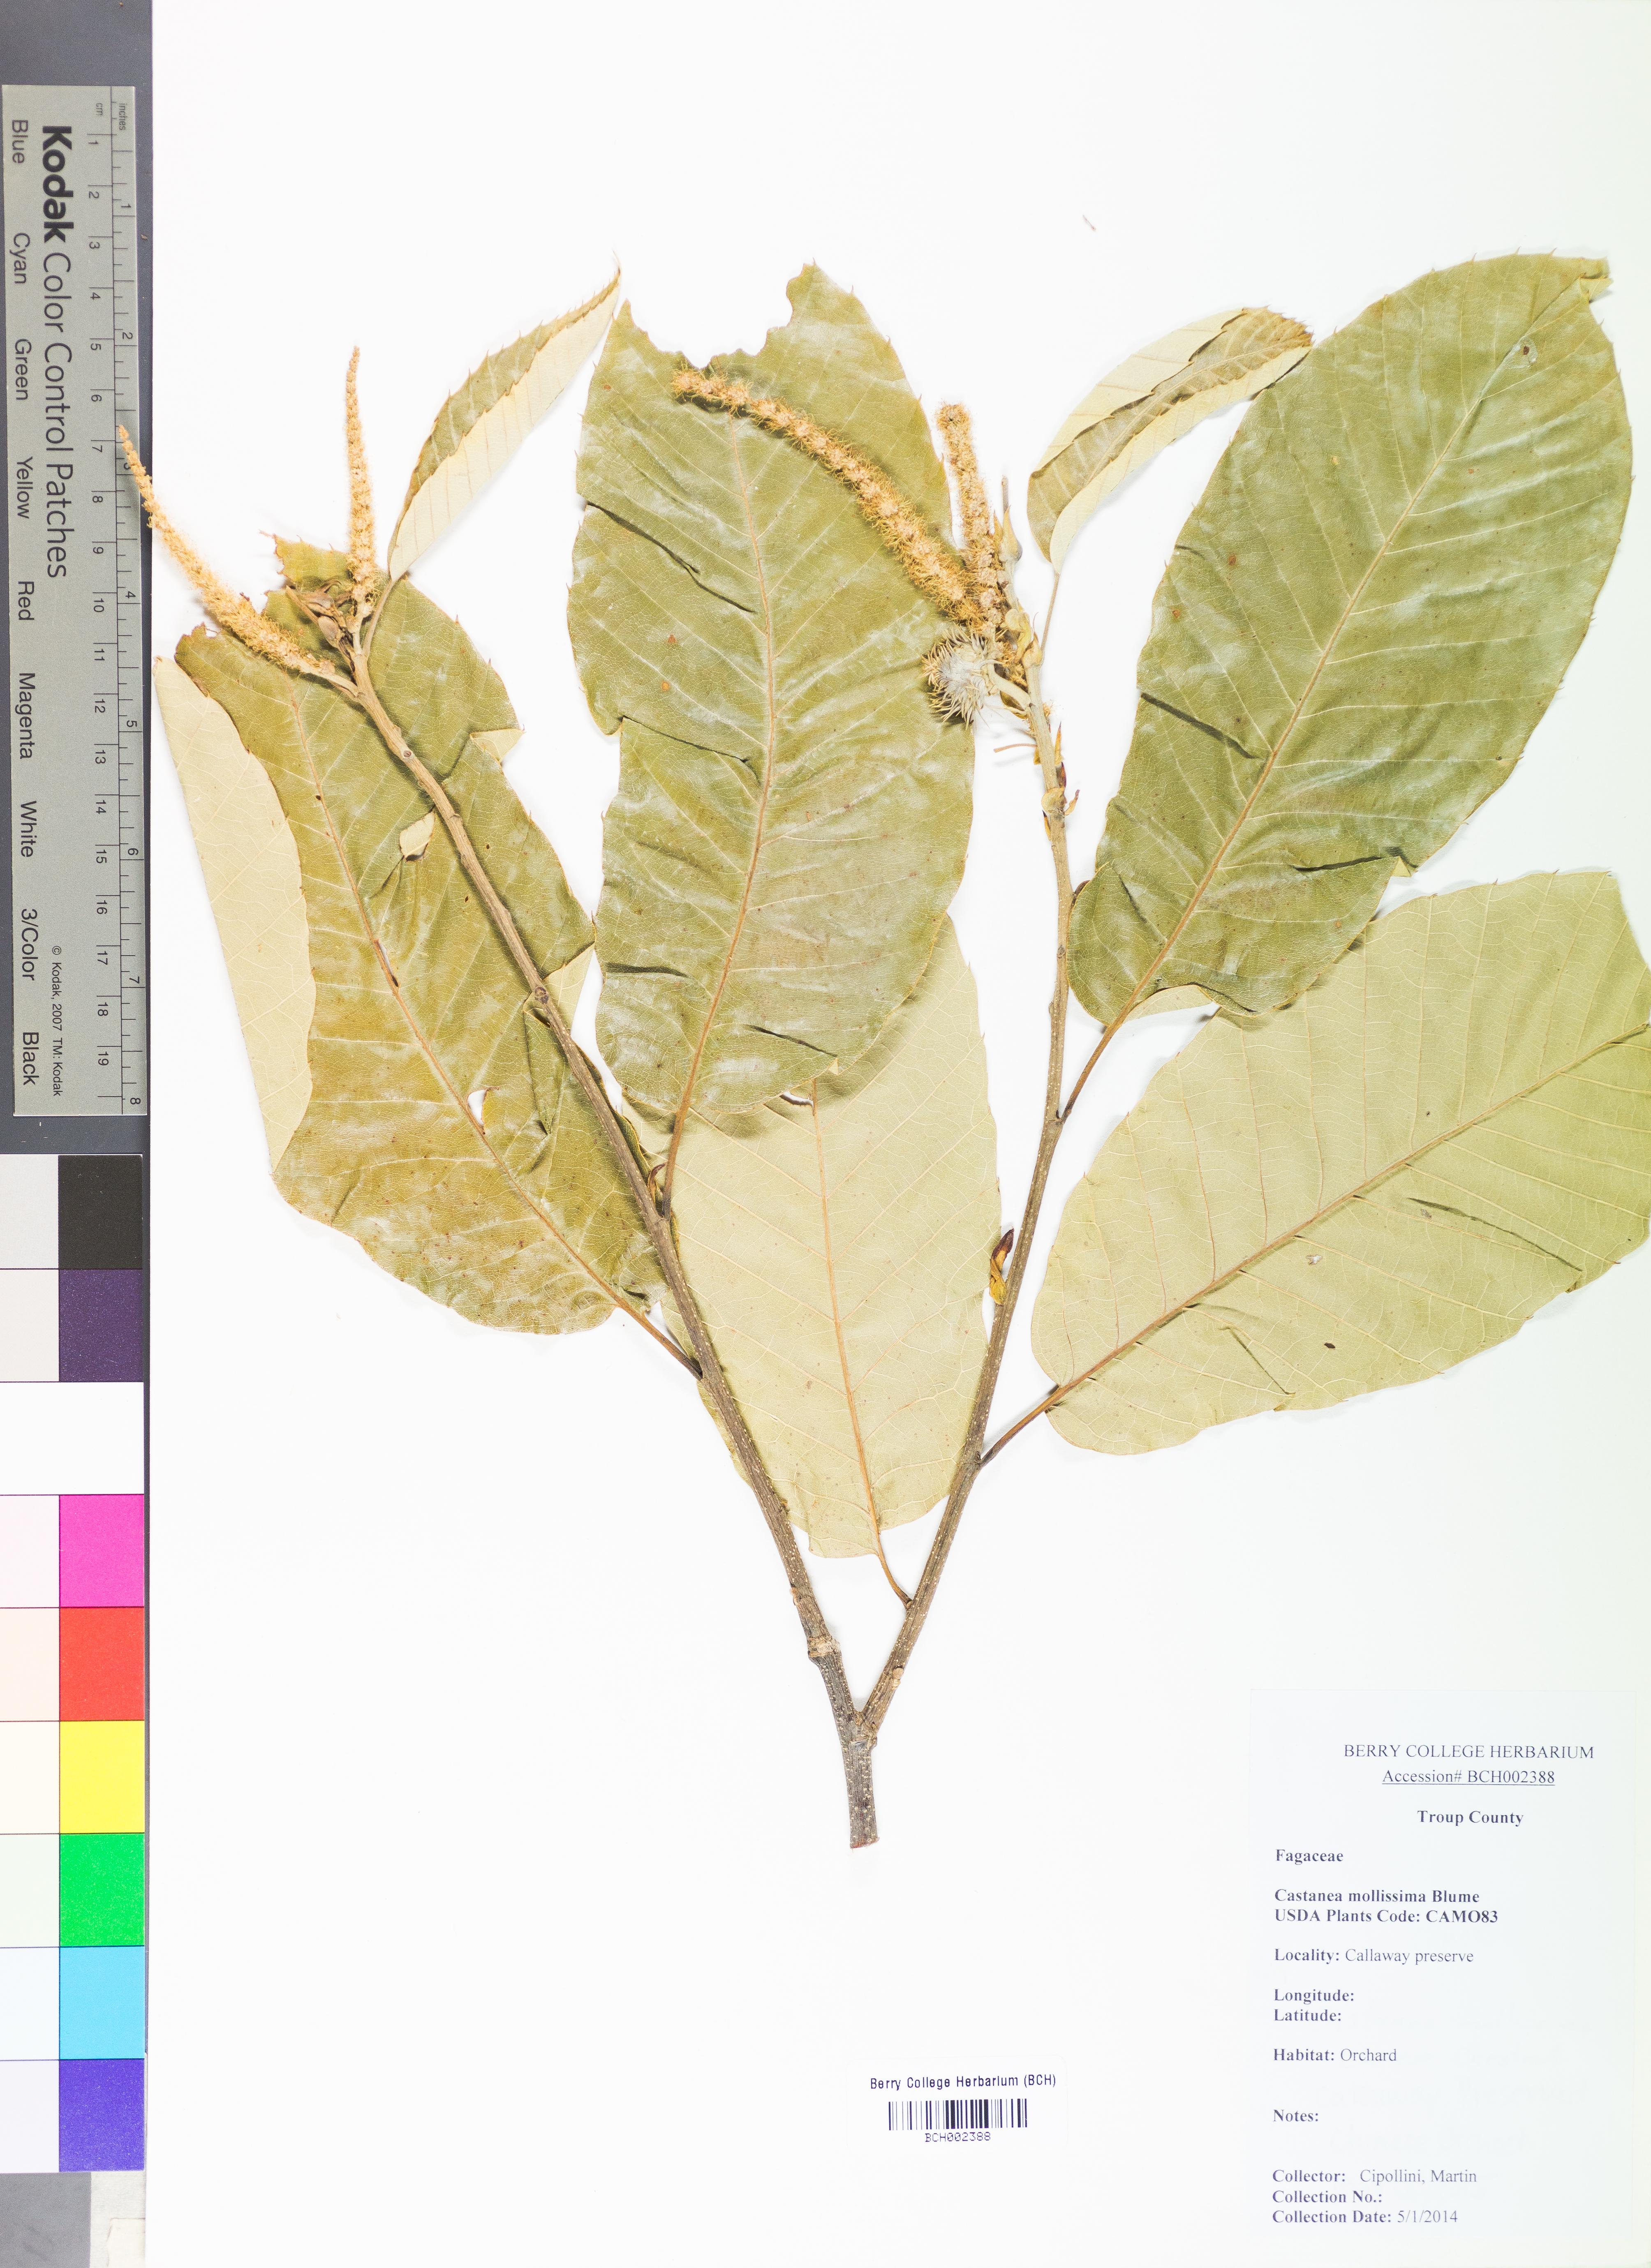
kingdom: Plantae
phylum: Tracheophyta
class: Magnoliopsida
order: Fagales
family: Fagaceae
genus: Castanea
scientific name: Castanea mollissima
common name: Chinese chestnut
